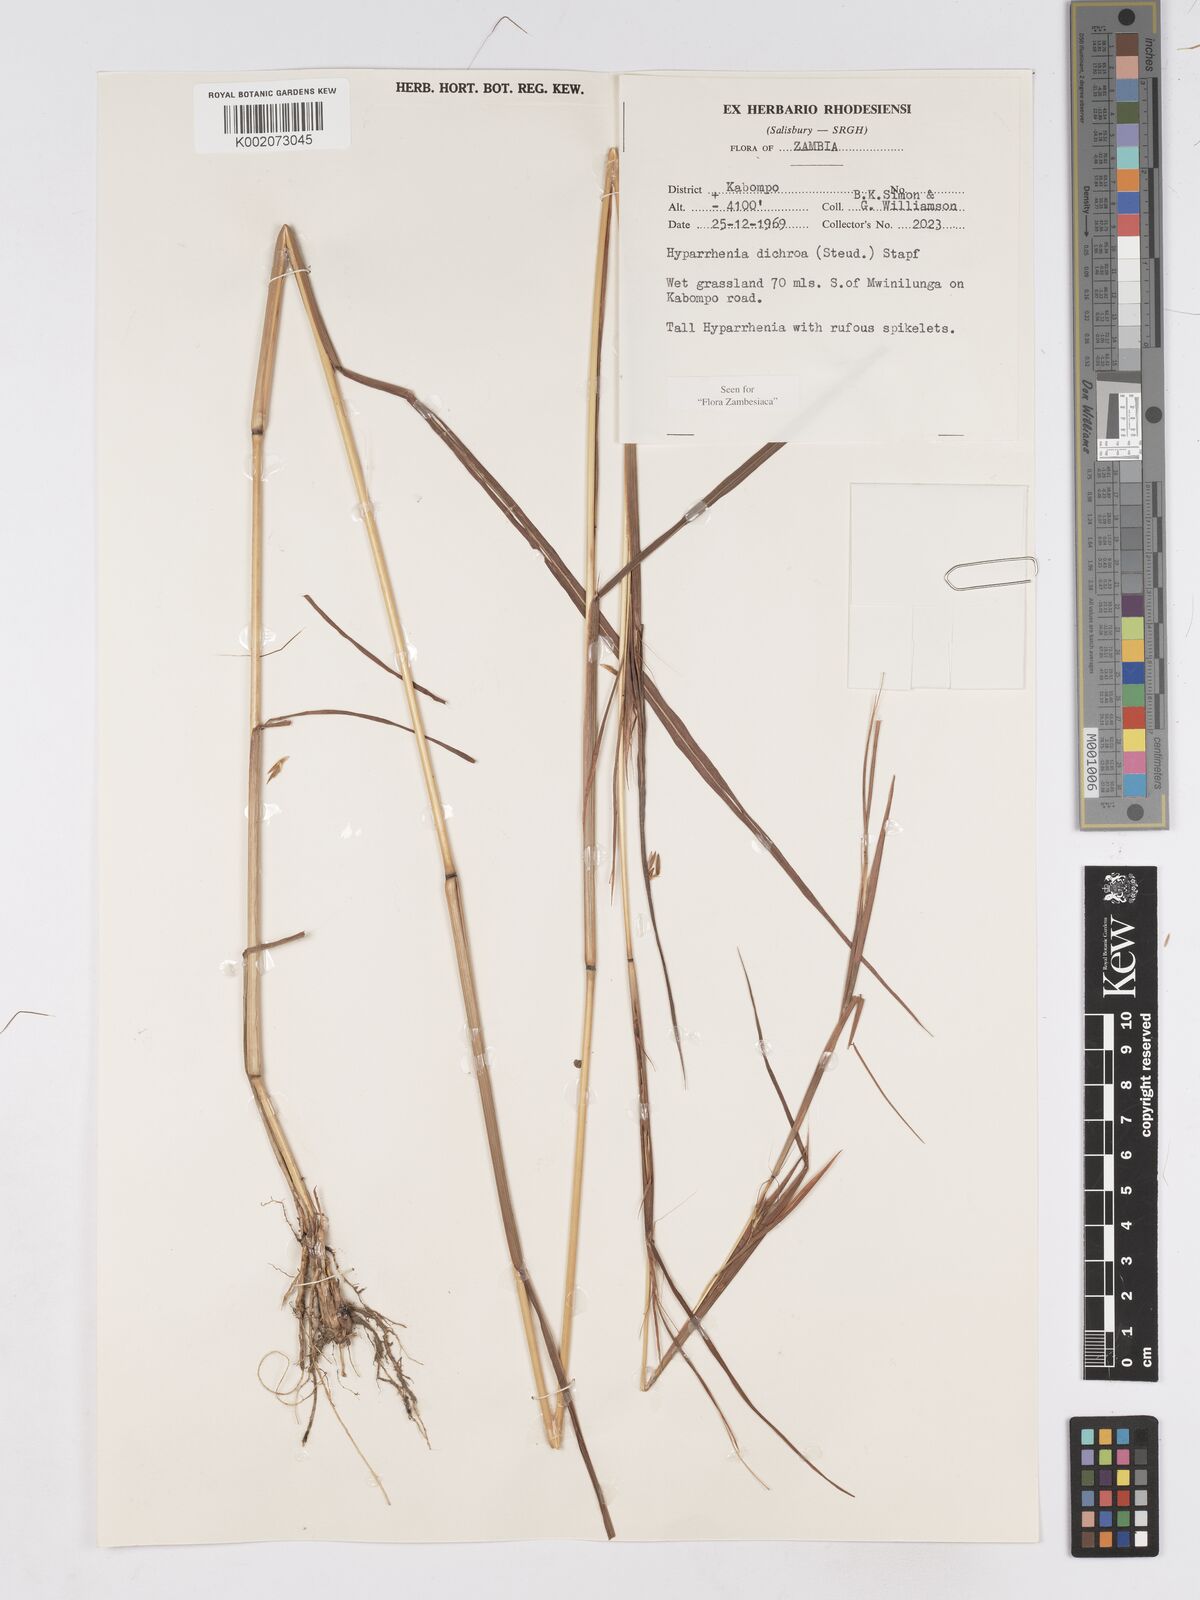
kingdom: Plantae
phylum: Tracheophyta
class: Liliopsida
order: Poales
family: Poaceae
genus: Hyparrhenia
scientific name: Hyparrhenia dichroa
